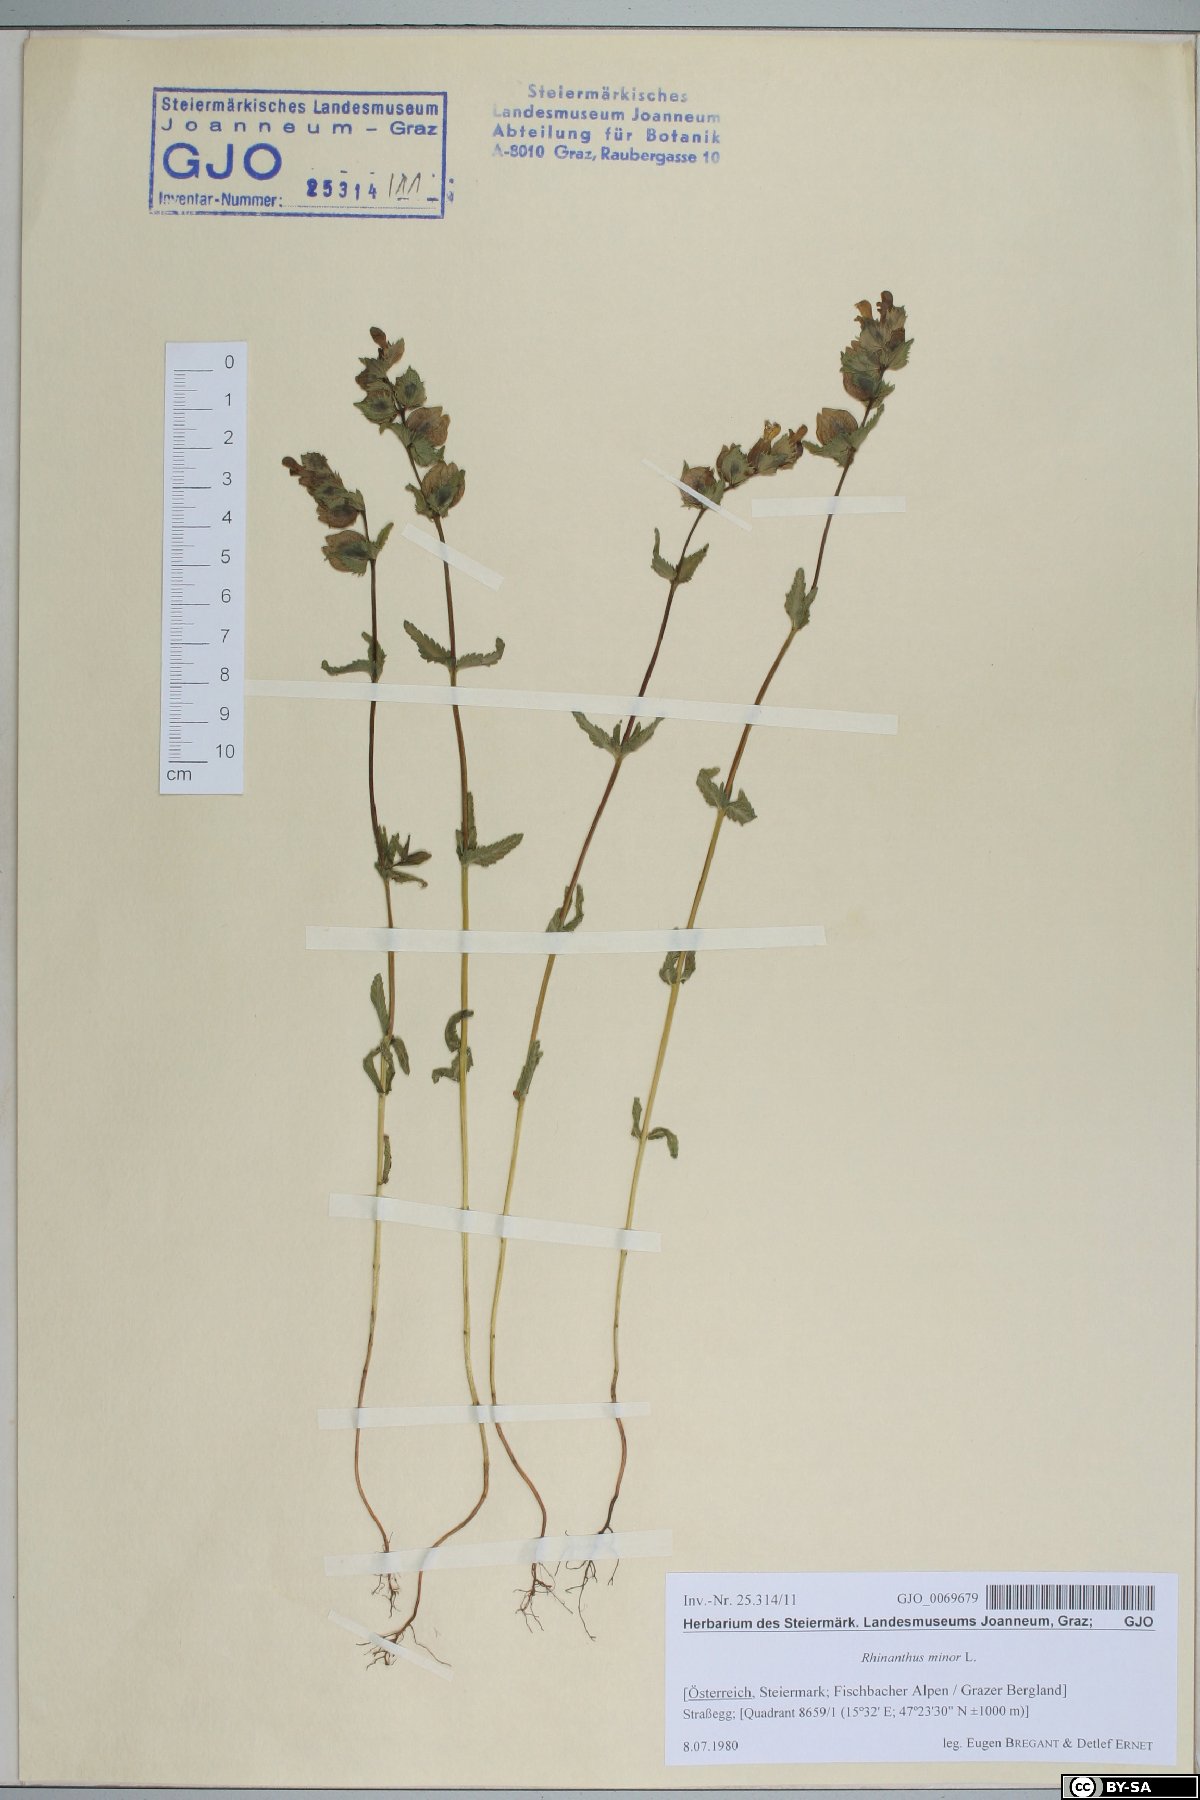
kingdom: Plantae
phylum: Tracheophyta
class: Magnoliopsida
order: Lamiales
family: Orobanchaceae
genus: Rhinanthus
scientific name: Rhinanthus minor
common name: Yellow-rattle
